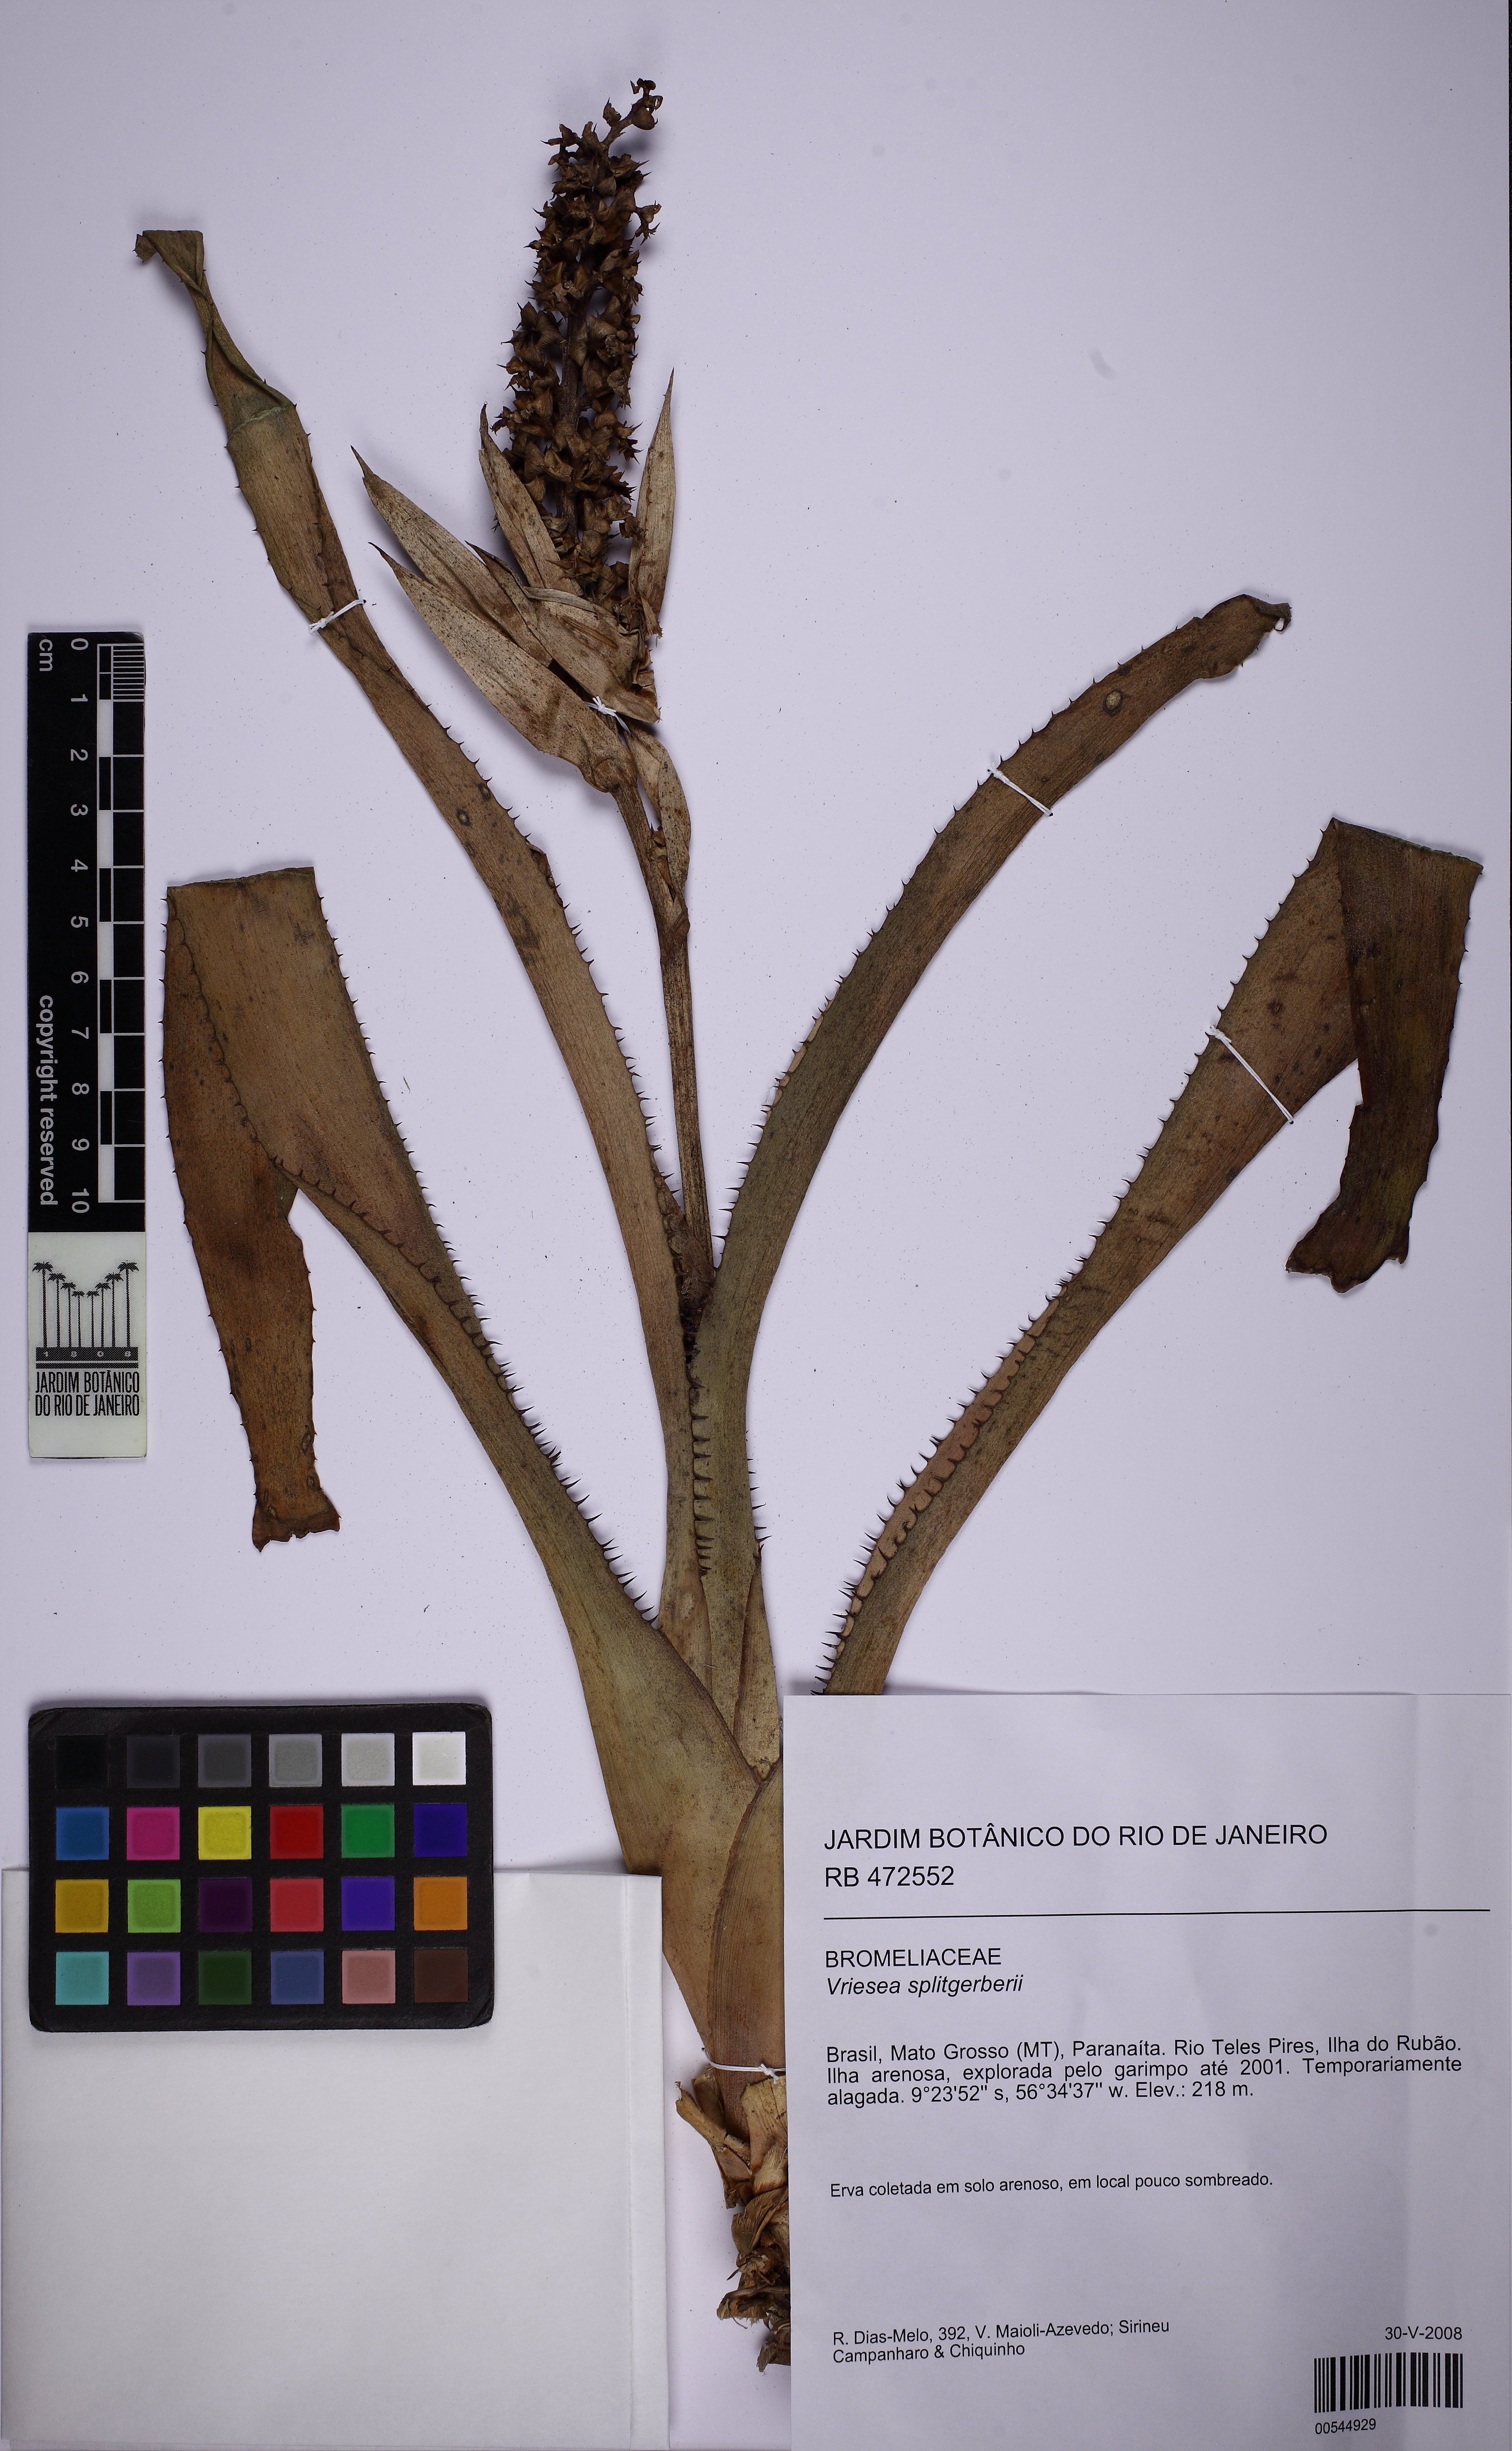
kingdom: Plantae
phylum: Tracheophyta
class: Liliopsida
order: Poales
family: Bromeliaceae
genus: Aechmea
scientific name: Aechmea mertensii
